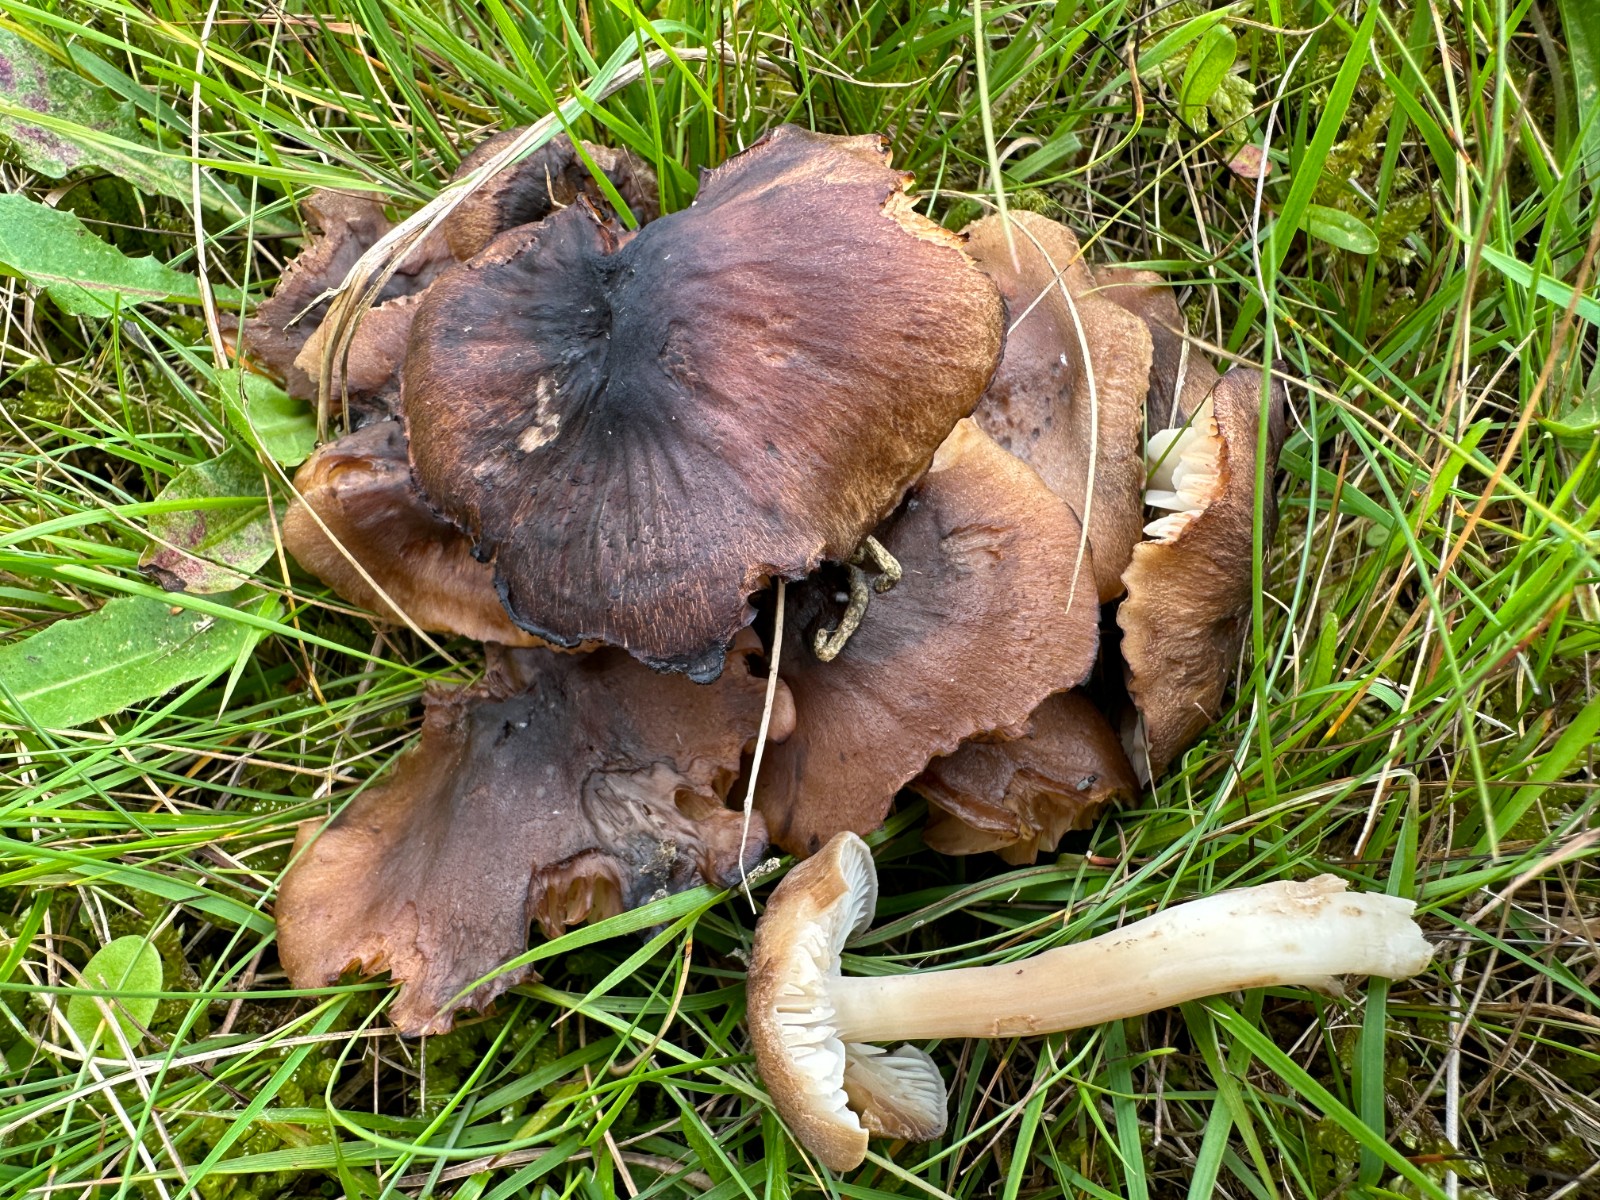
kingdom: Fungi
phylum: Basidiomycota
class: Agaricomycetes
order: Agaricales
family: Hygrophoraceae
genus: Hygrocybe
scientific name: Hygrocybe ingrata
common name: Jensens vokshat
